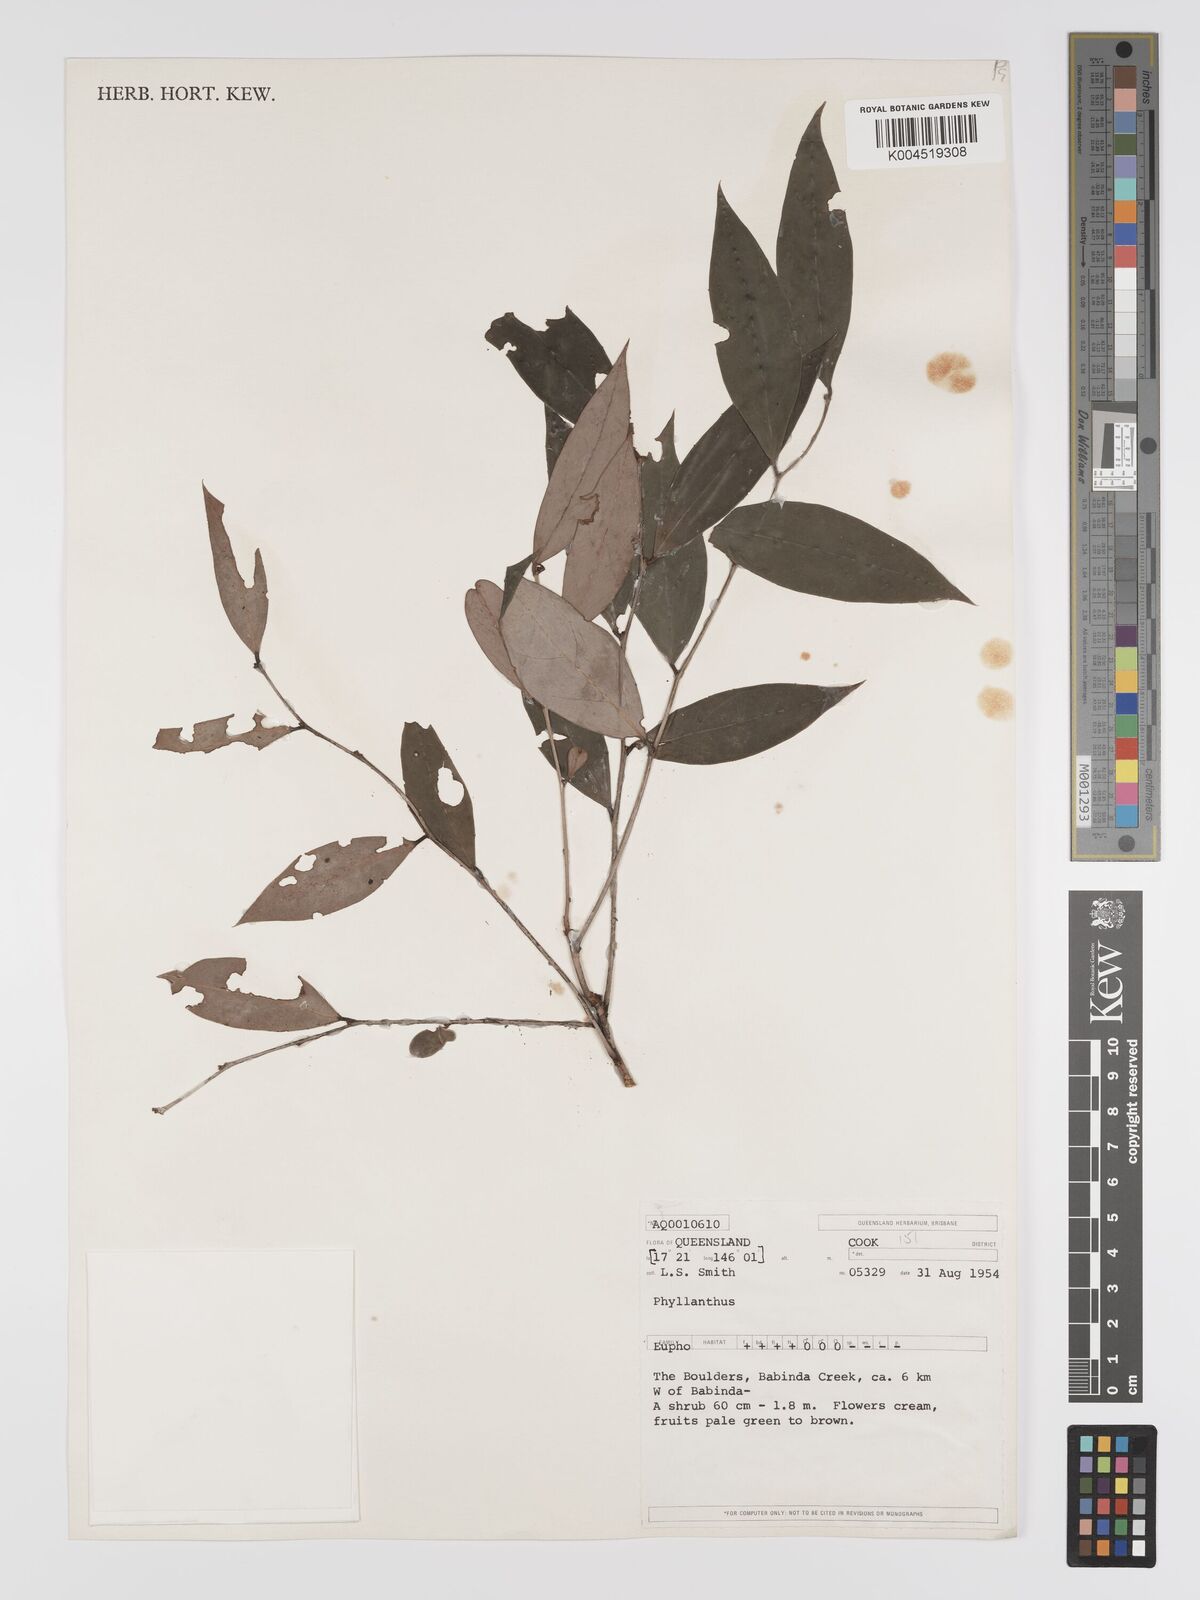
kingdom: Plantae
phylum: Tracheophyta
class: Magnoliopsida
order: Malpighiales
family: Phyllanthaceae
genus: Phyllanthus
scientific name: Phyllanthus hypospodius
